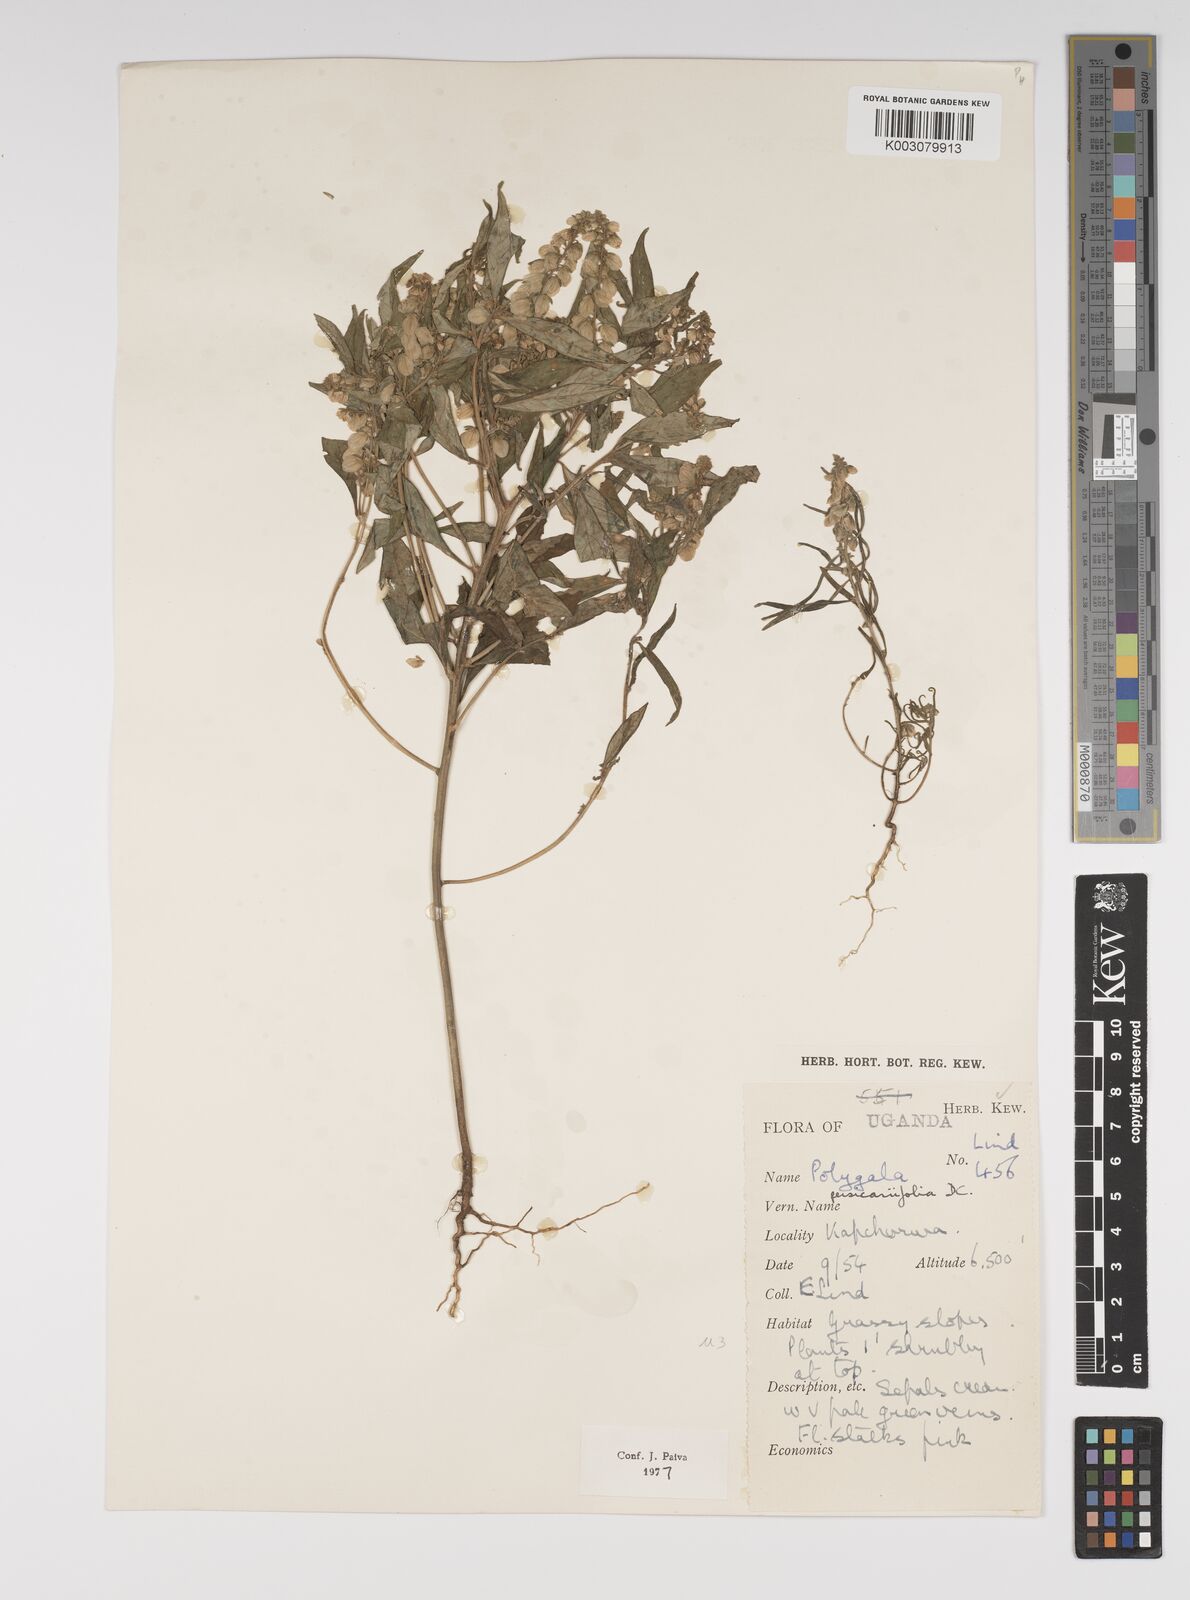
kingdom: Plantae
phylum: Tracheophyta
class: Magnoliopsida
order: Fabales
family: Polygalaceae
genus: Polygala
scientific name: Polygala persicariifolia
